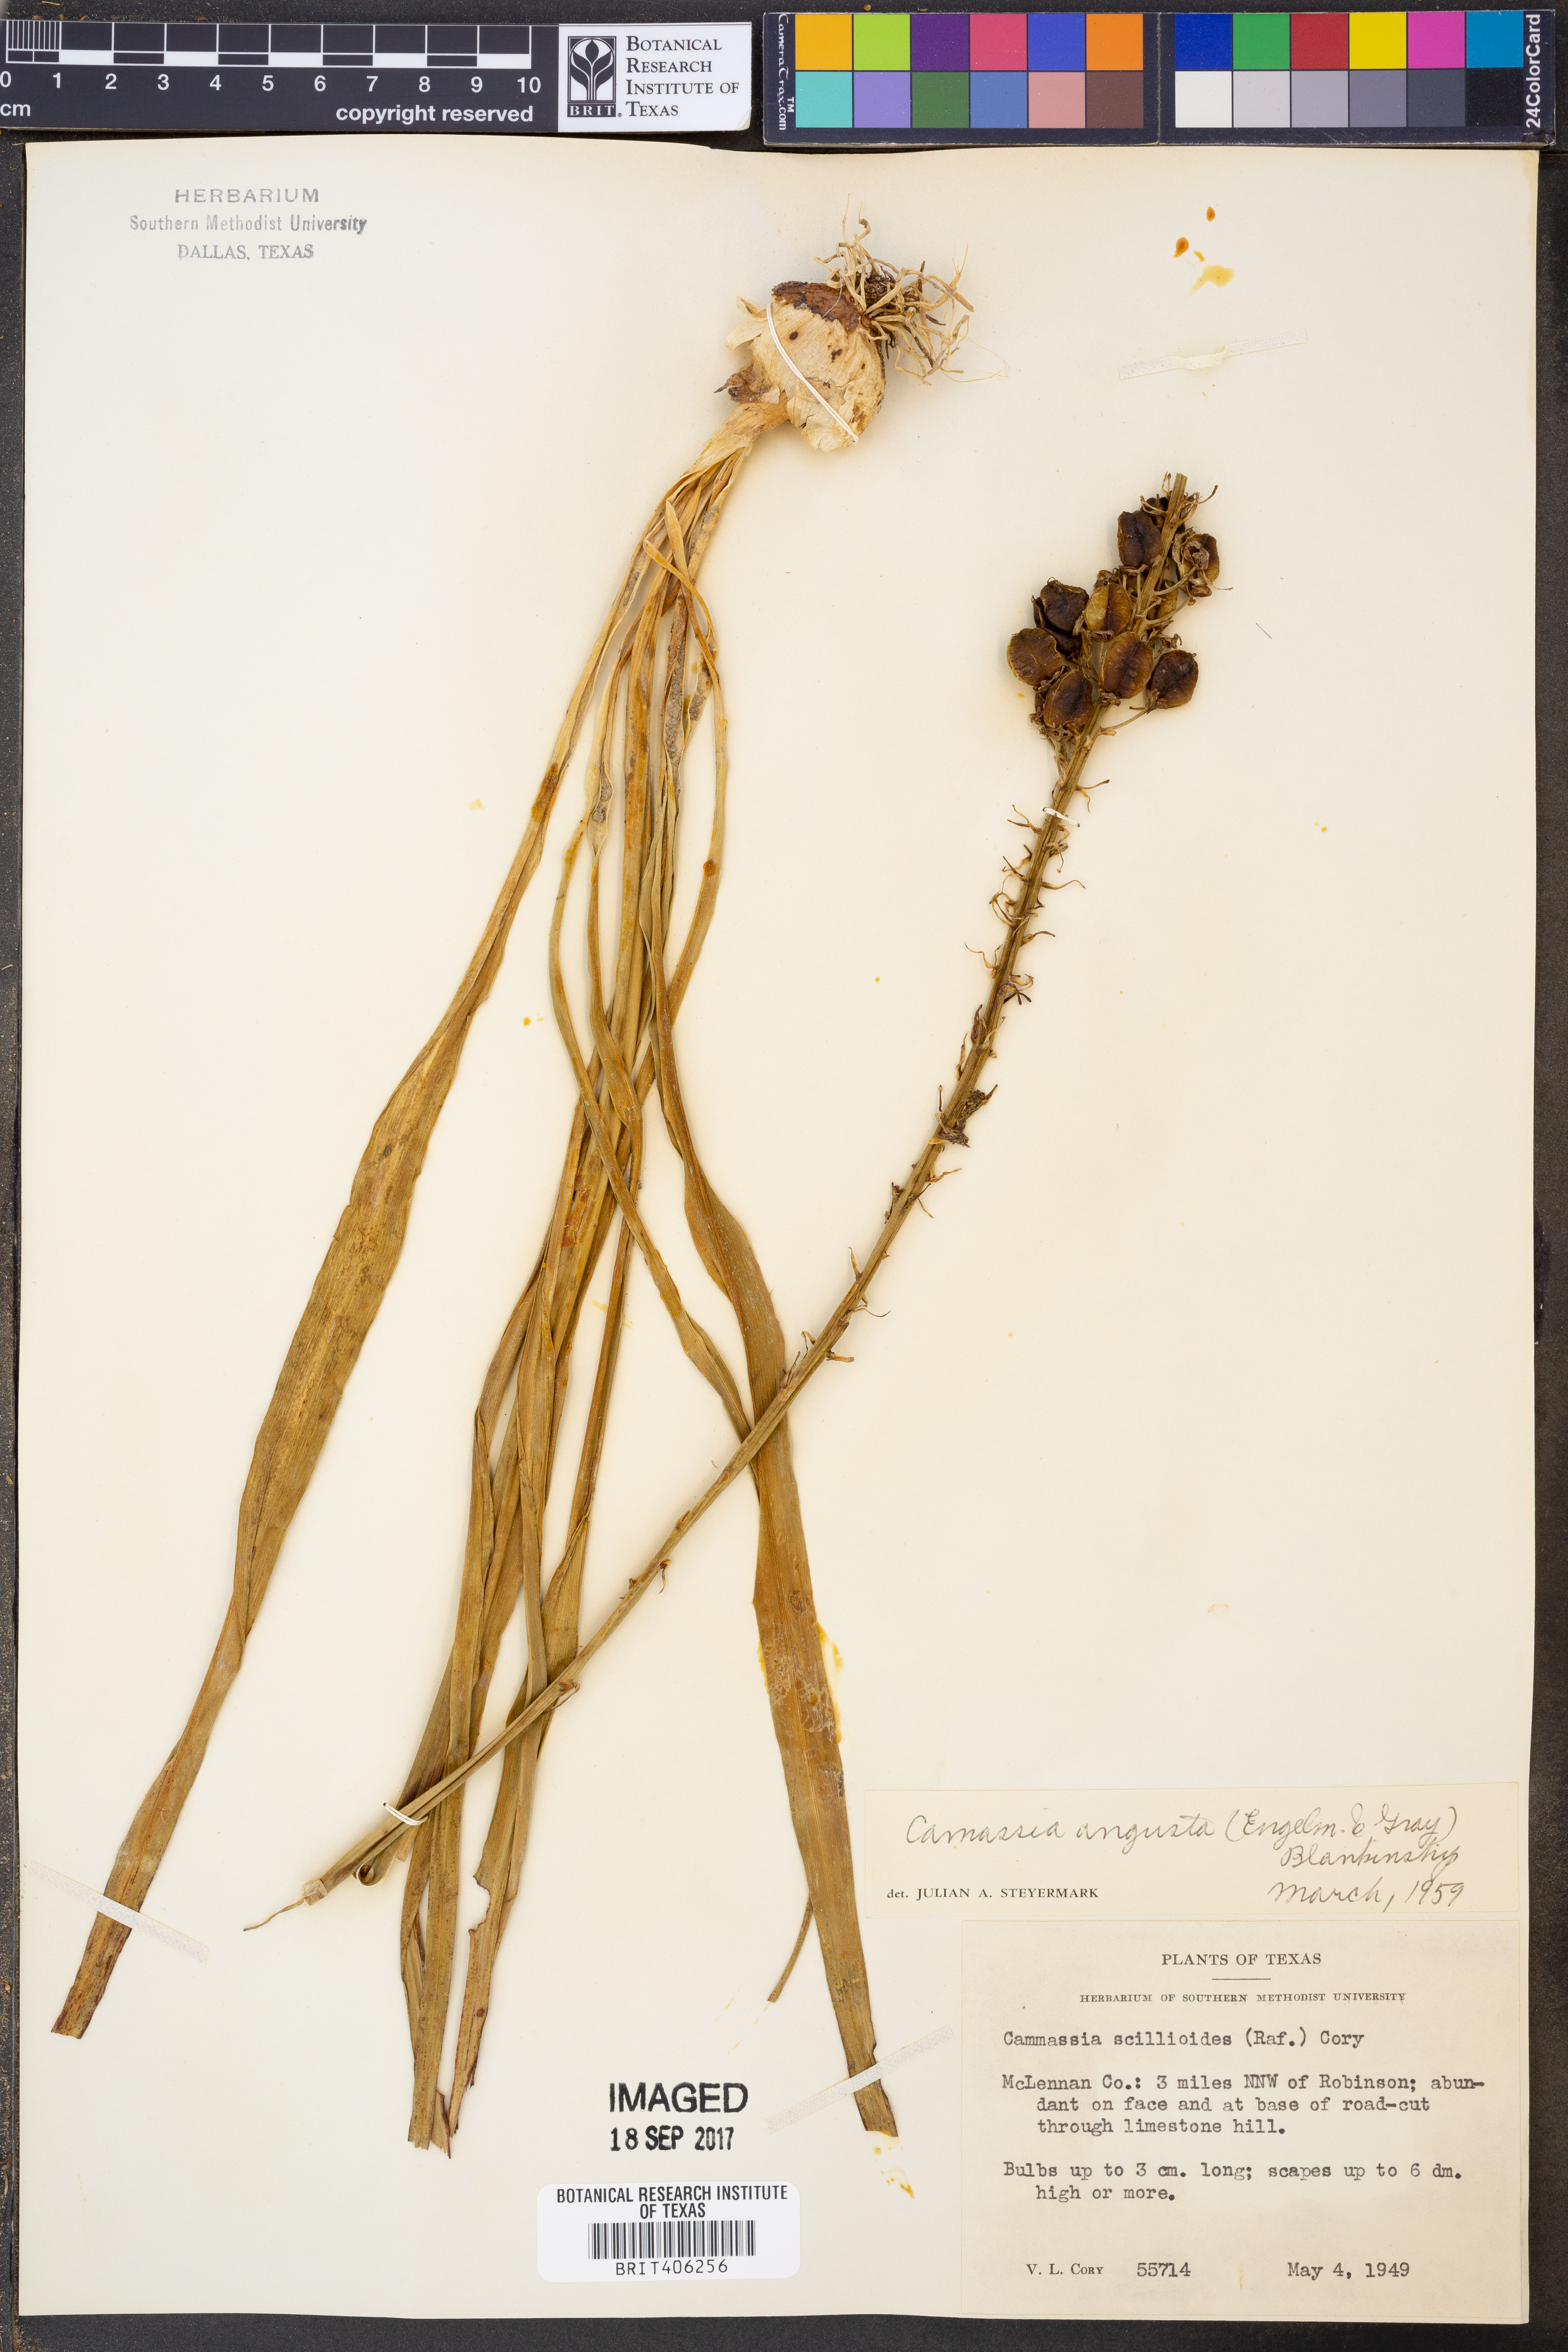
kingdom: Plantae
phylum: Tracheophyta
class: Liliopsida
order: Asparagales
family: Asparagaceae
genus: Camassia
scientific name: Camassia angusta
